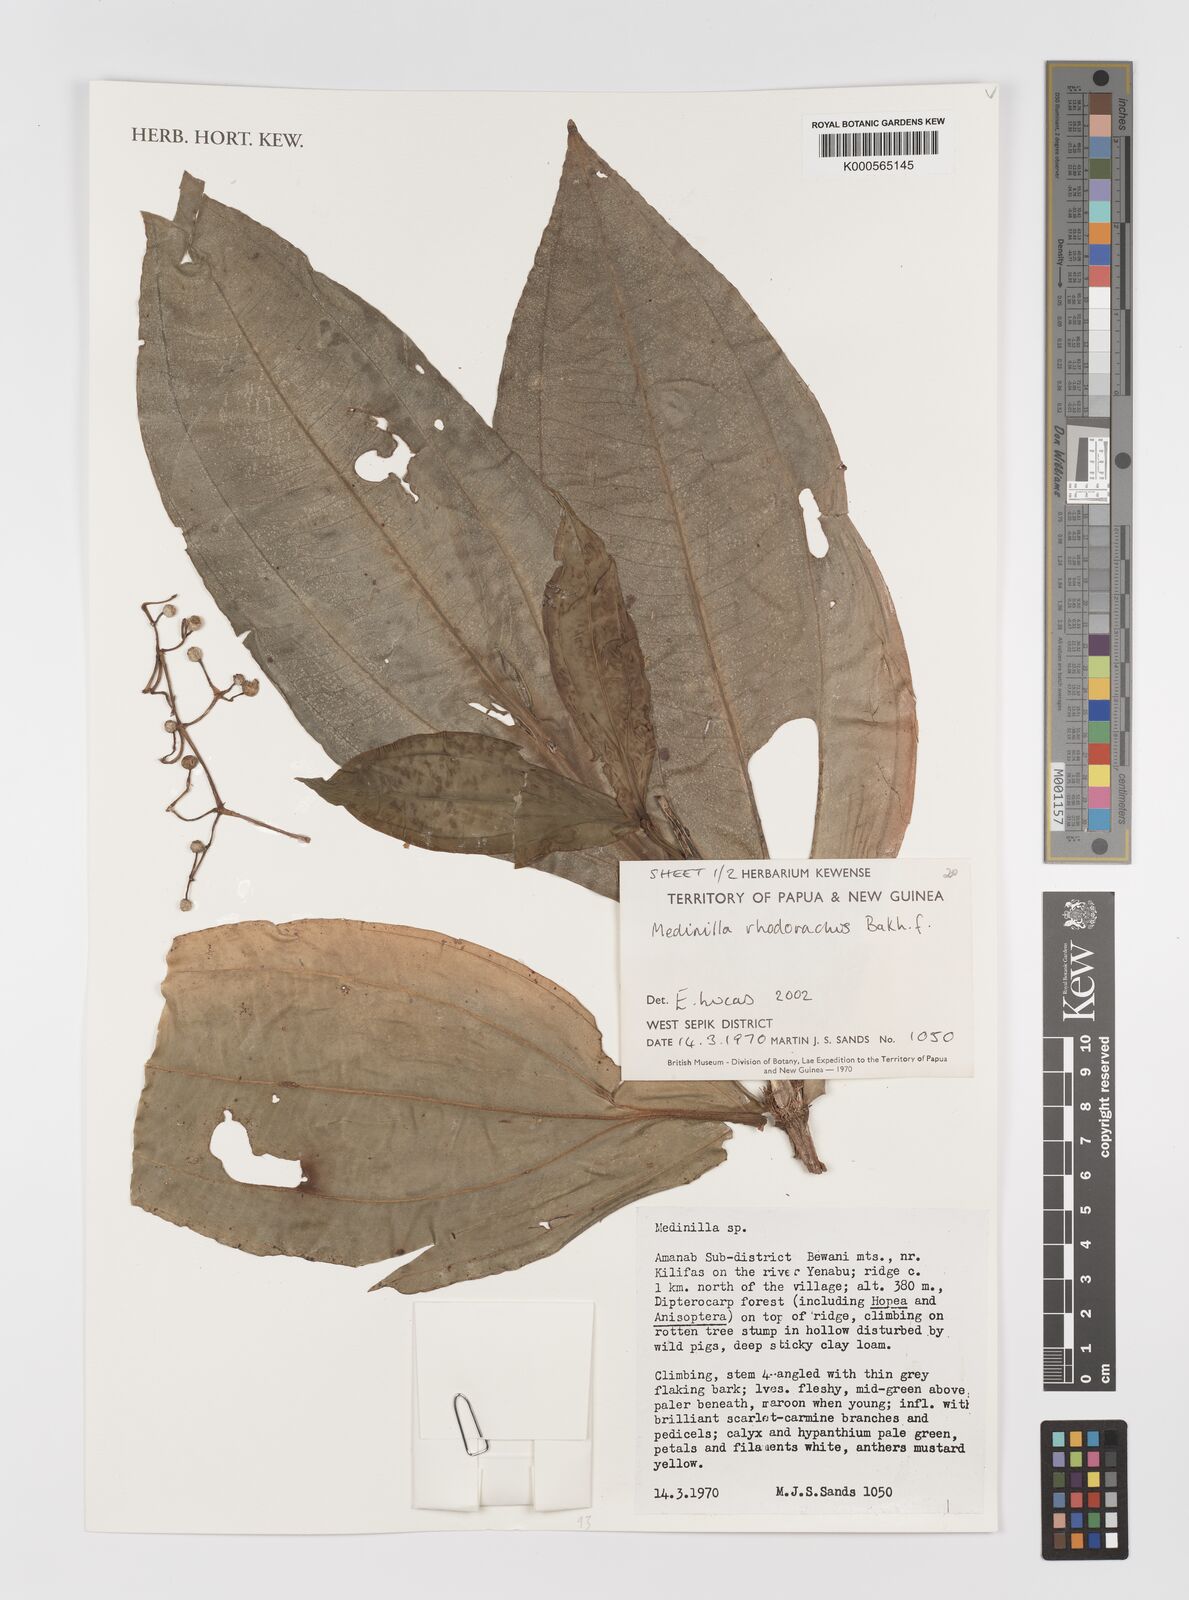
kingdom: Plantae
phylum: Tracheophyta
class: Magnoliopsida
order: Myrtales
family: Melastomataceae
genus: Medinilla
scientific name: Medinilla
